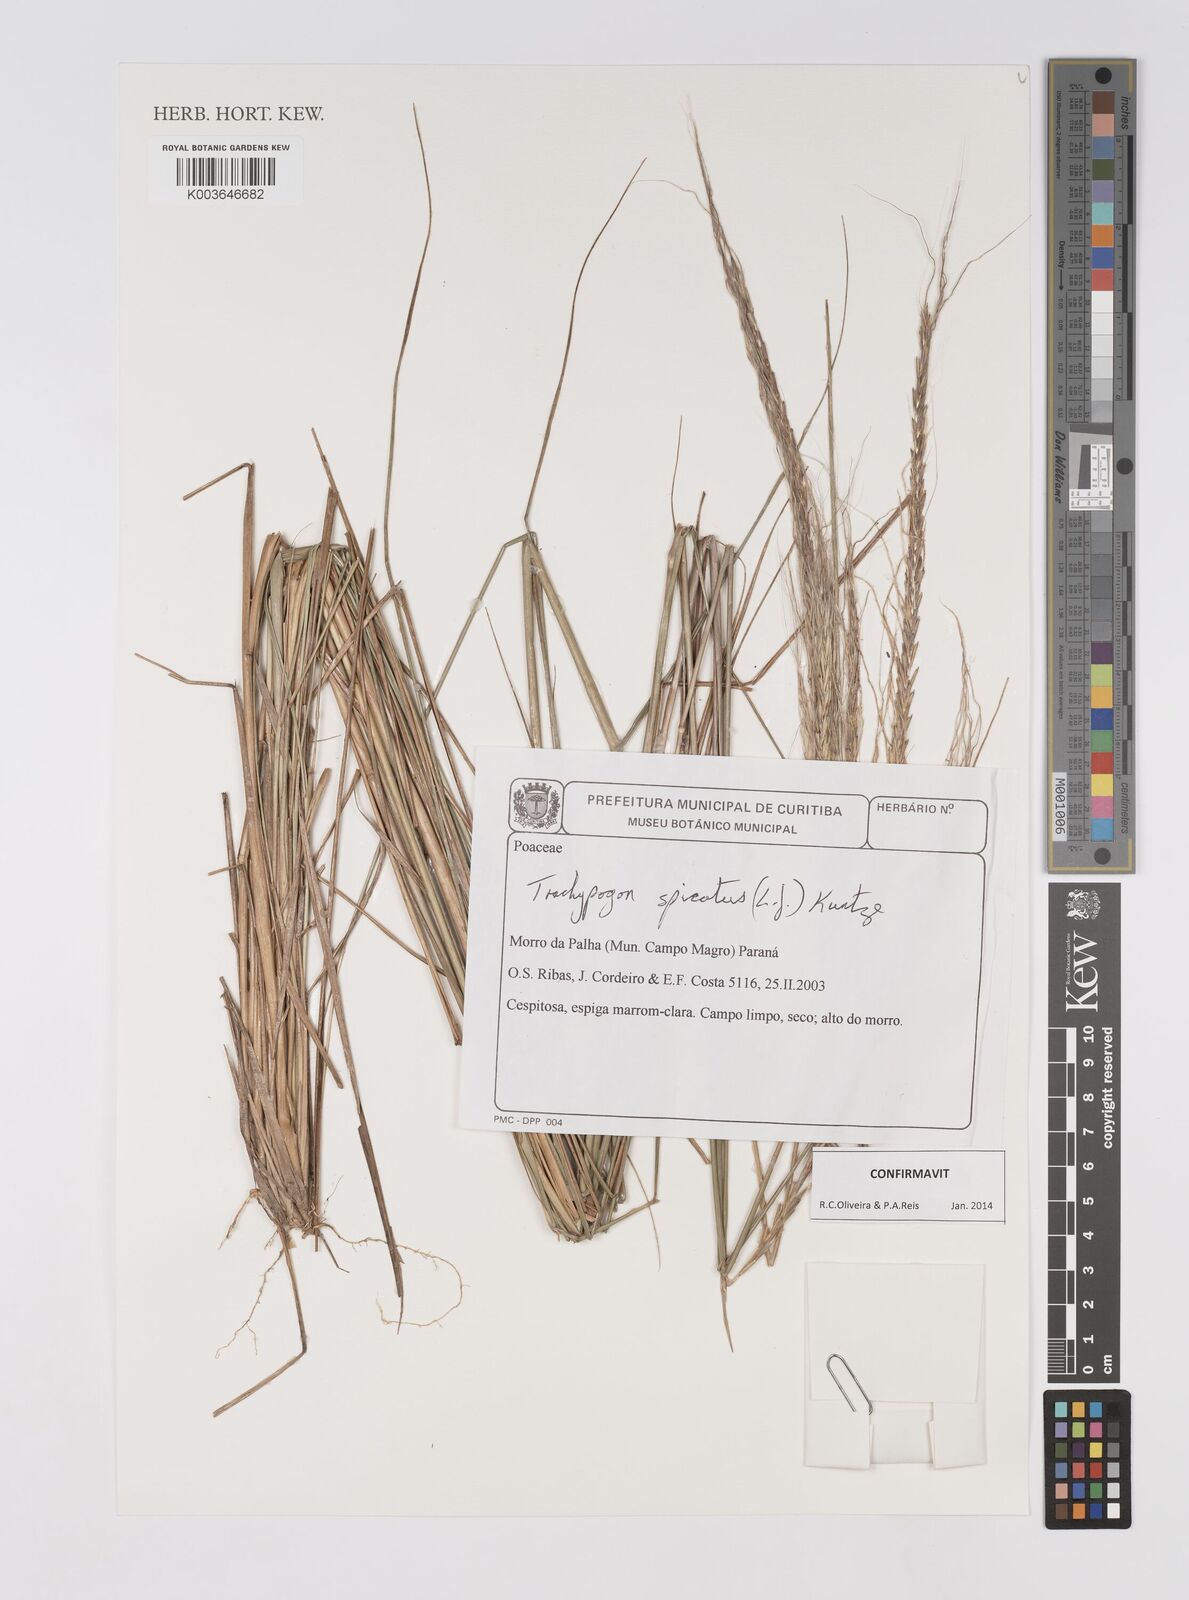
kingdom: Plantae
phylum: Tracheophyta
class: Liliopsida
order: Poales
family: Poaceae
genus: Trachypogon
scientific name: Trachypogon spicatus
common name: Crinkle-awn
